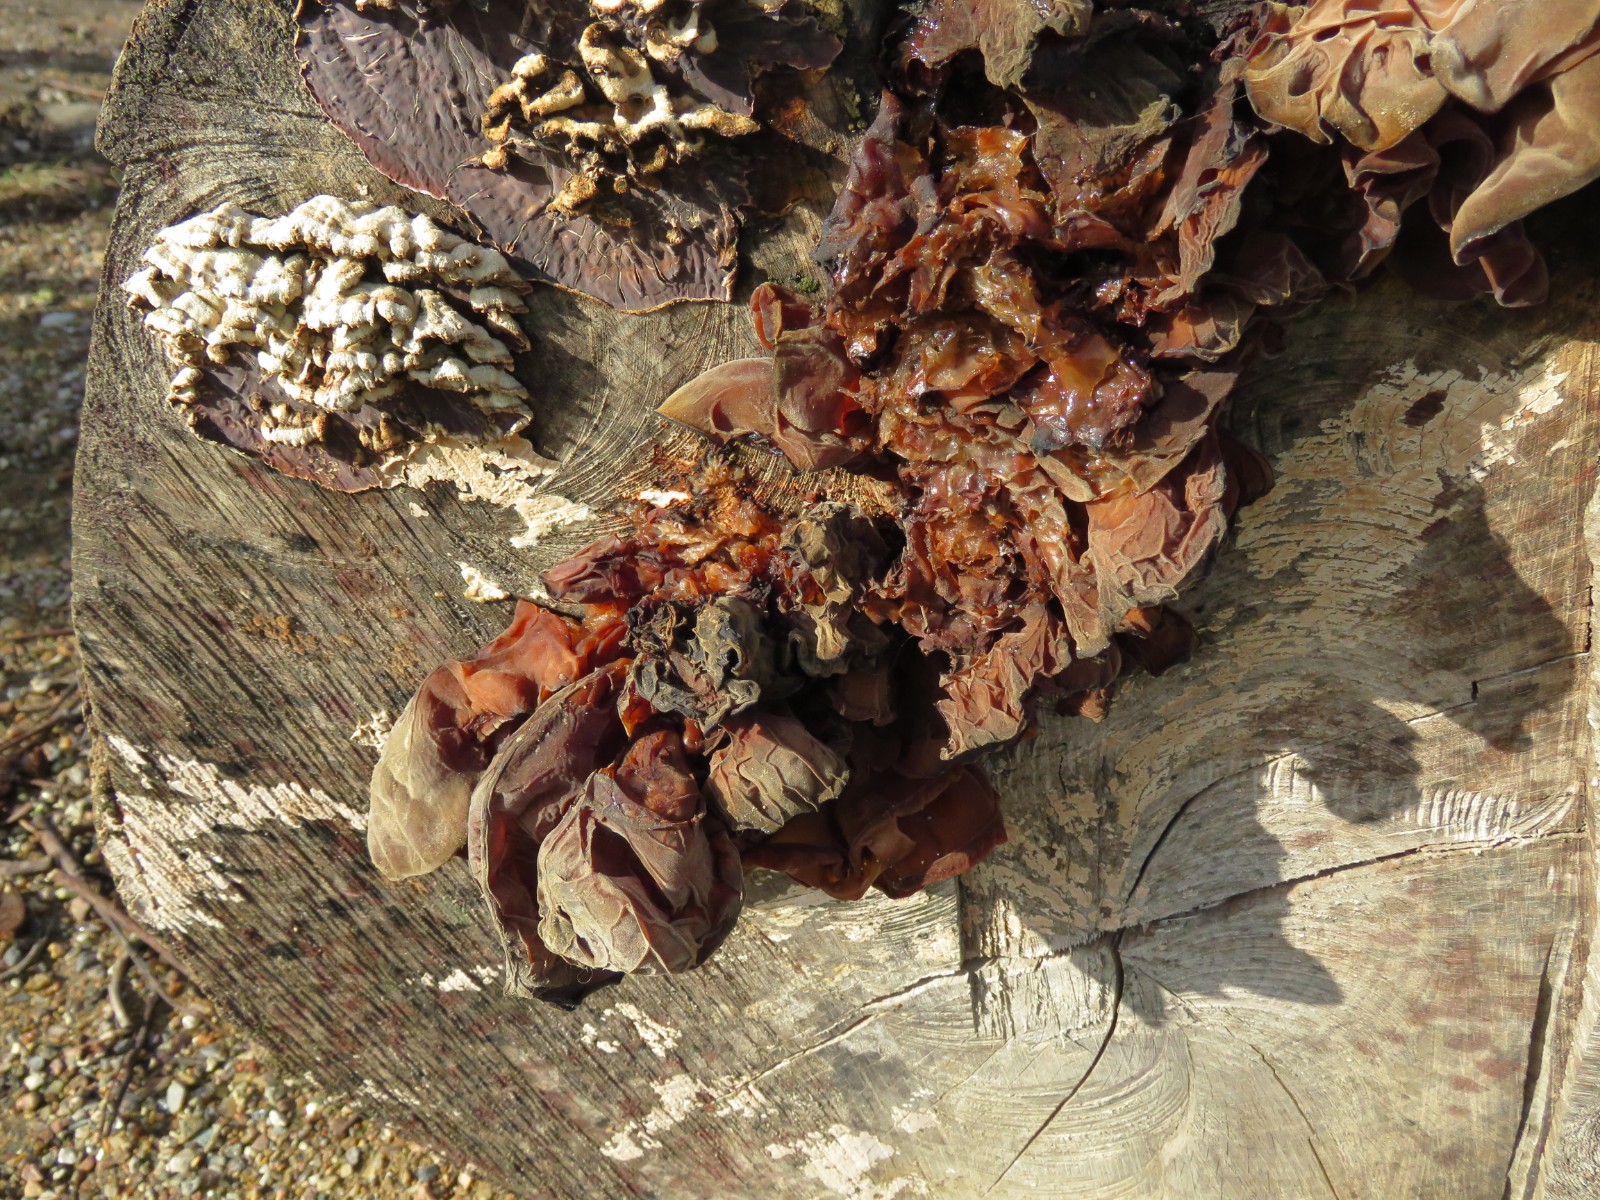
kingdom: Fungi
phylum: Basidiomycota
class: Agaricomycetes
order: Auriculariales
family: Auriculariaceae
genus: Auricularia
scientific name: Auricularia auricula-judae
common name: almindelig judasøre
